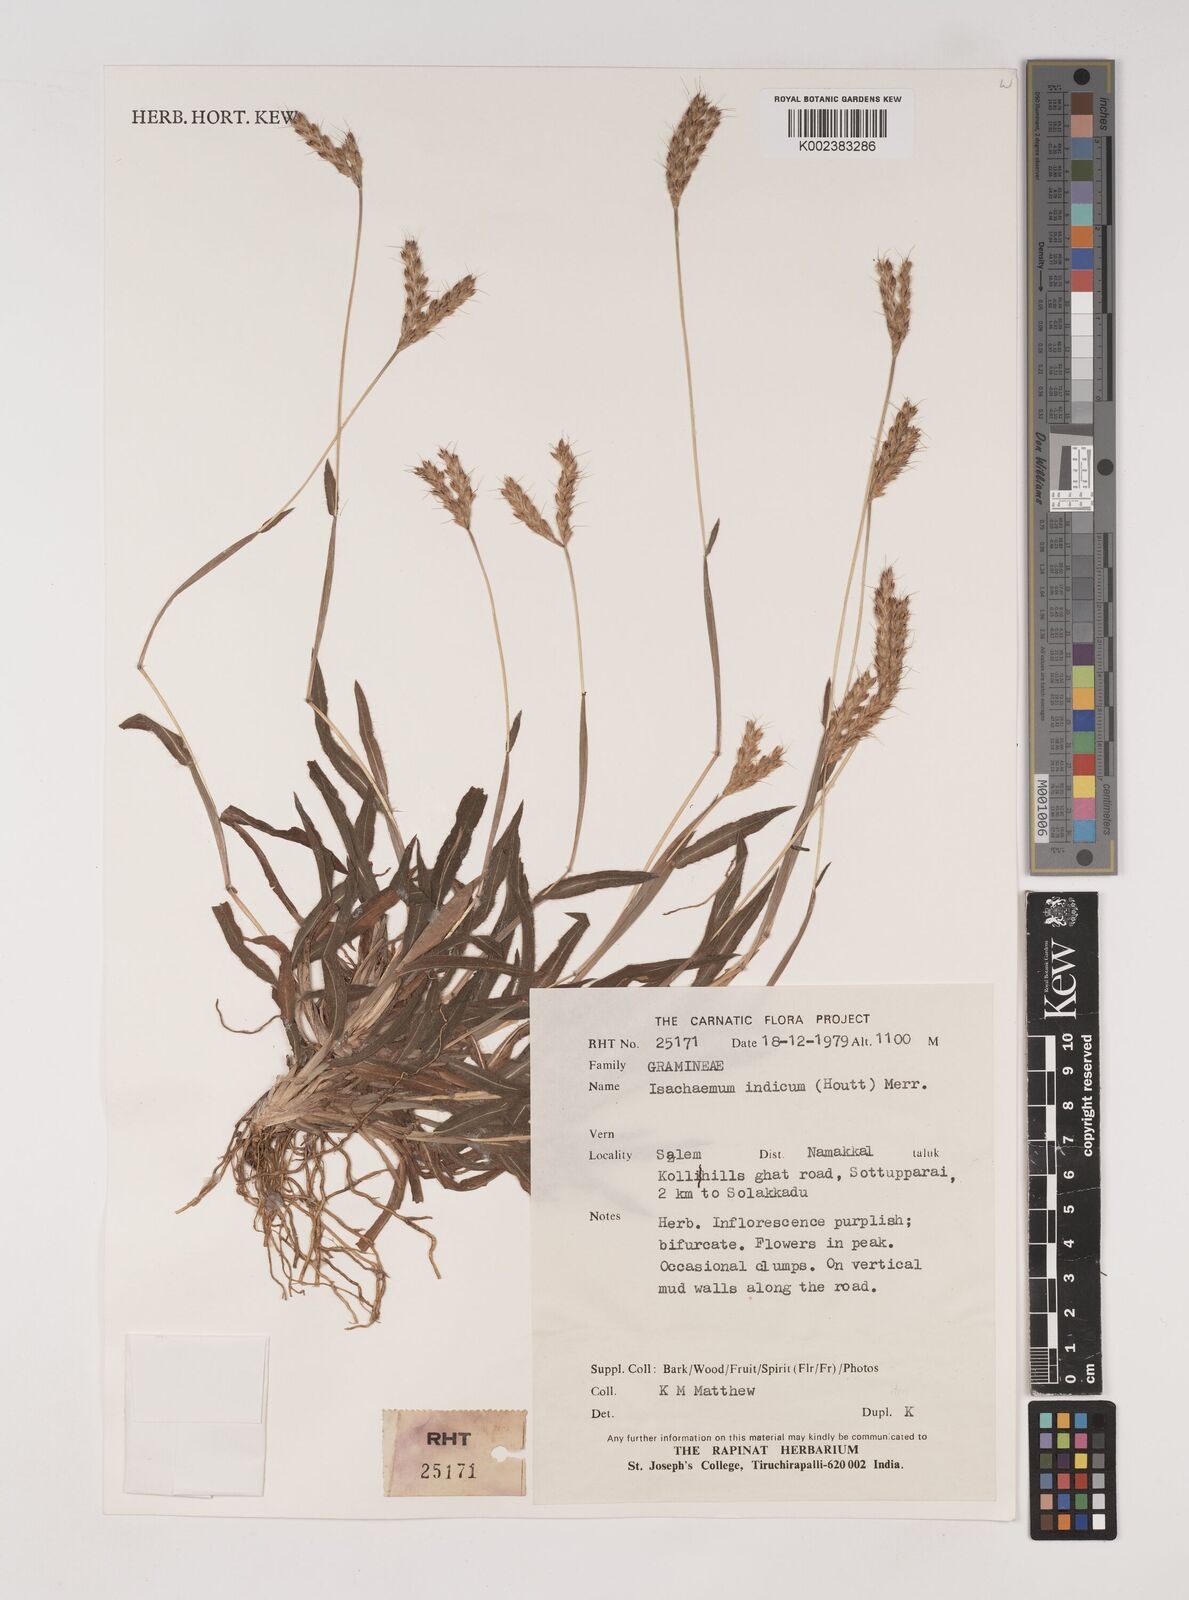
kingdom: Plantae
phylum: Tracheophyta
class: Liliopsida
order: Poales
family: Poaceae
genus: Polytrias
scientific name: Polytrias indica
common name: Indian murainagrass
